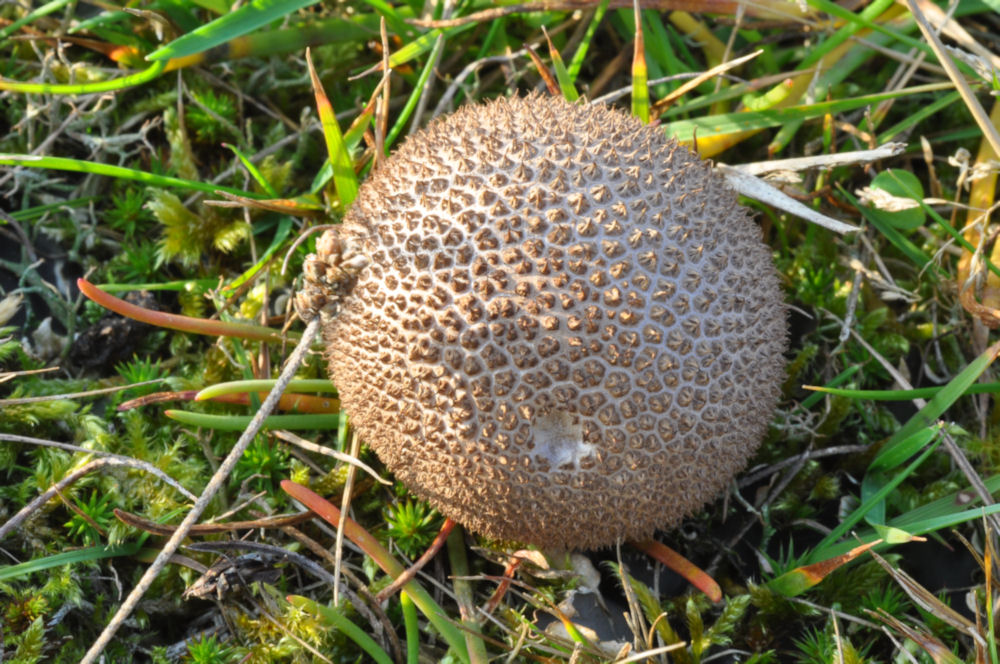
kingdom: Fungi
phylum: Basidiomycota
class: Agaricomycetes
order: Agaricales
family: Lycoperdaceae
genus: Lycoperdon
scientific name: Lycoperdon nigrescens
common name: sortagtig støvbold
